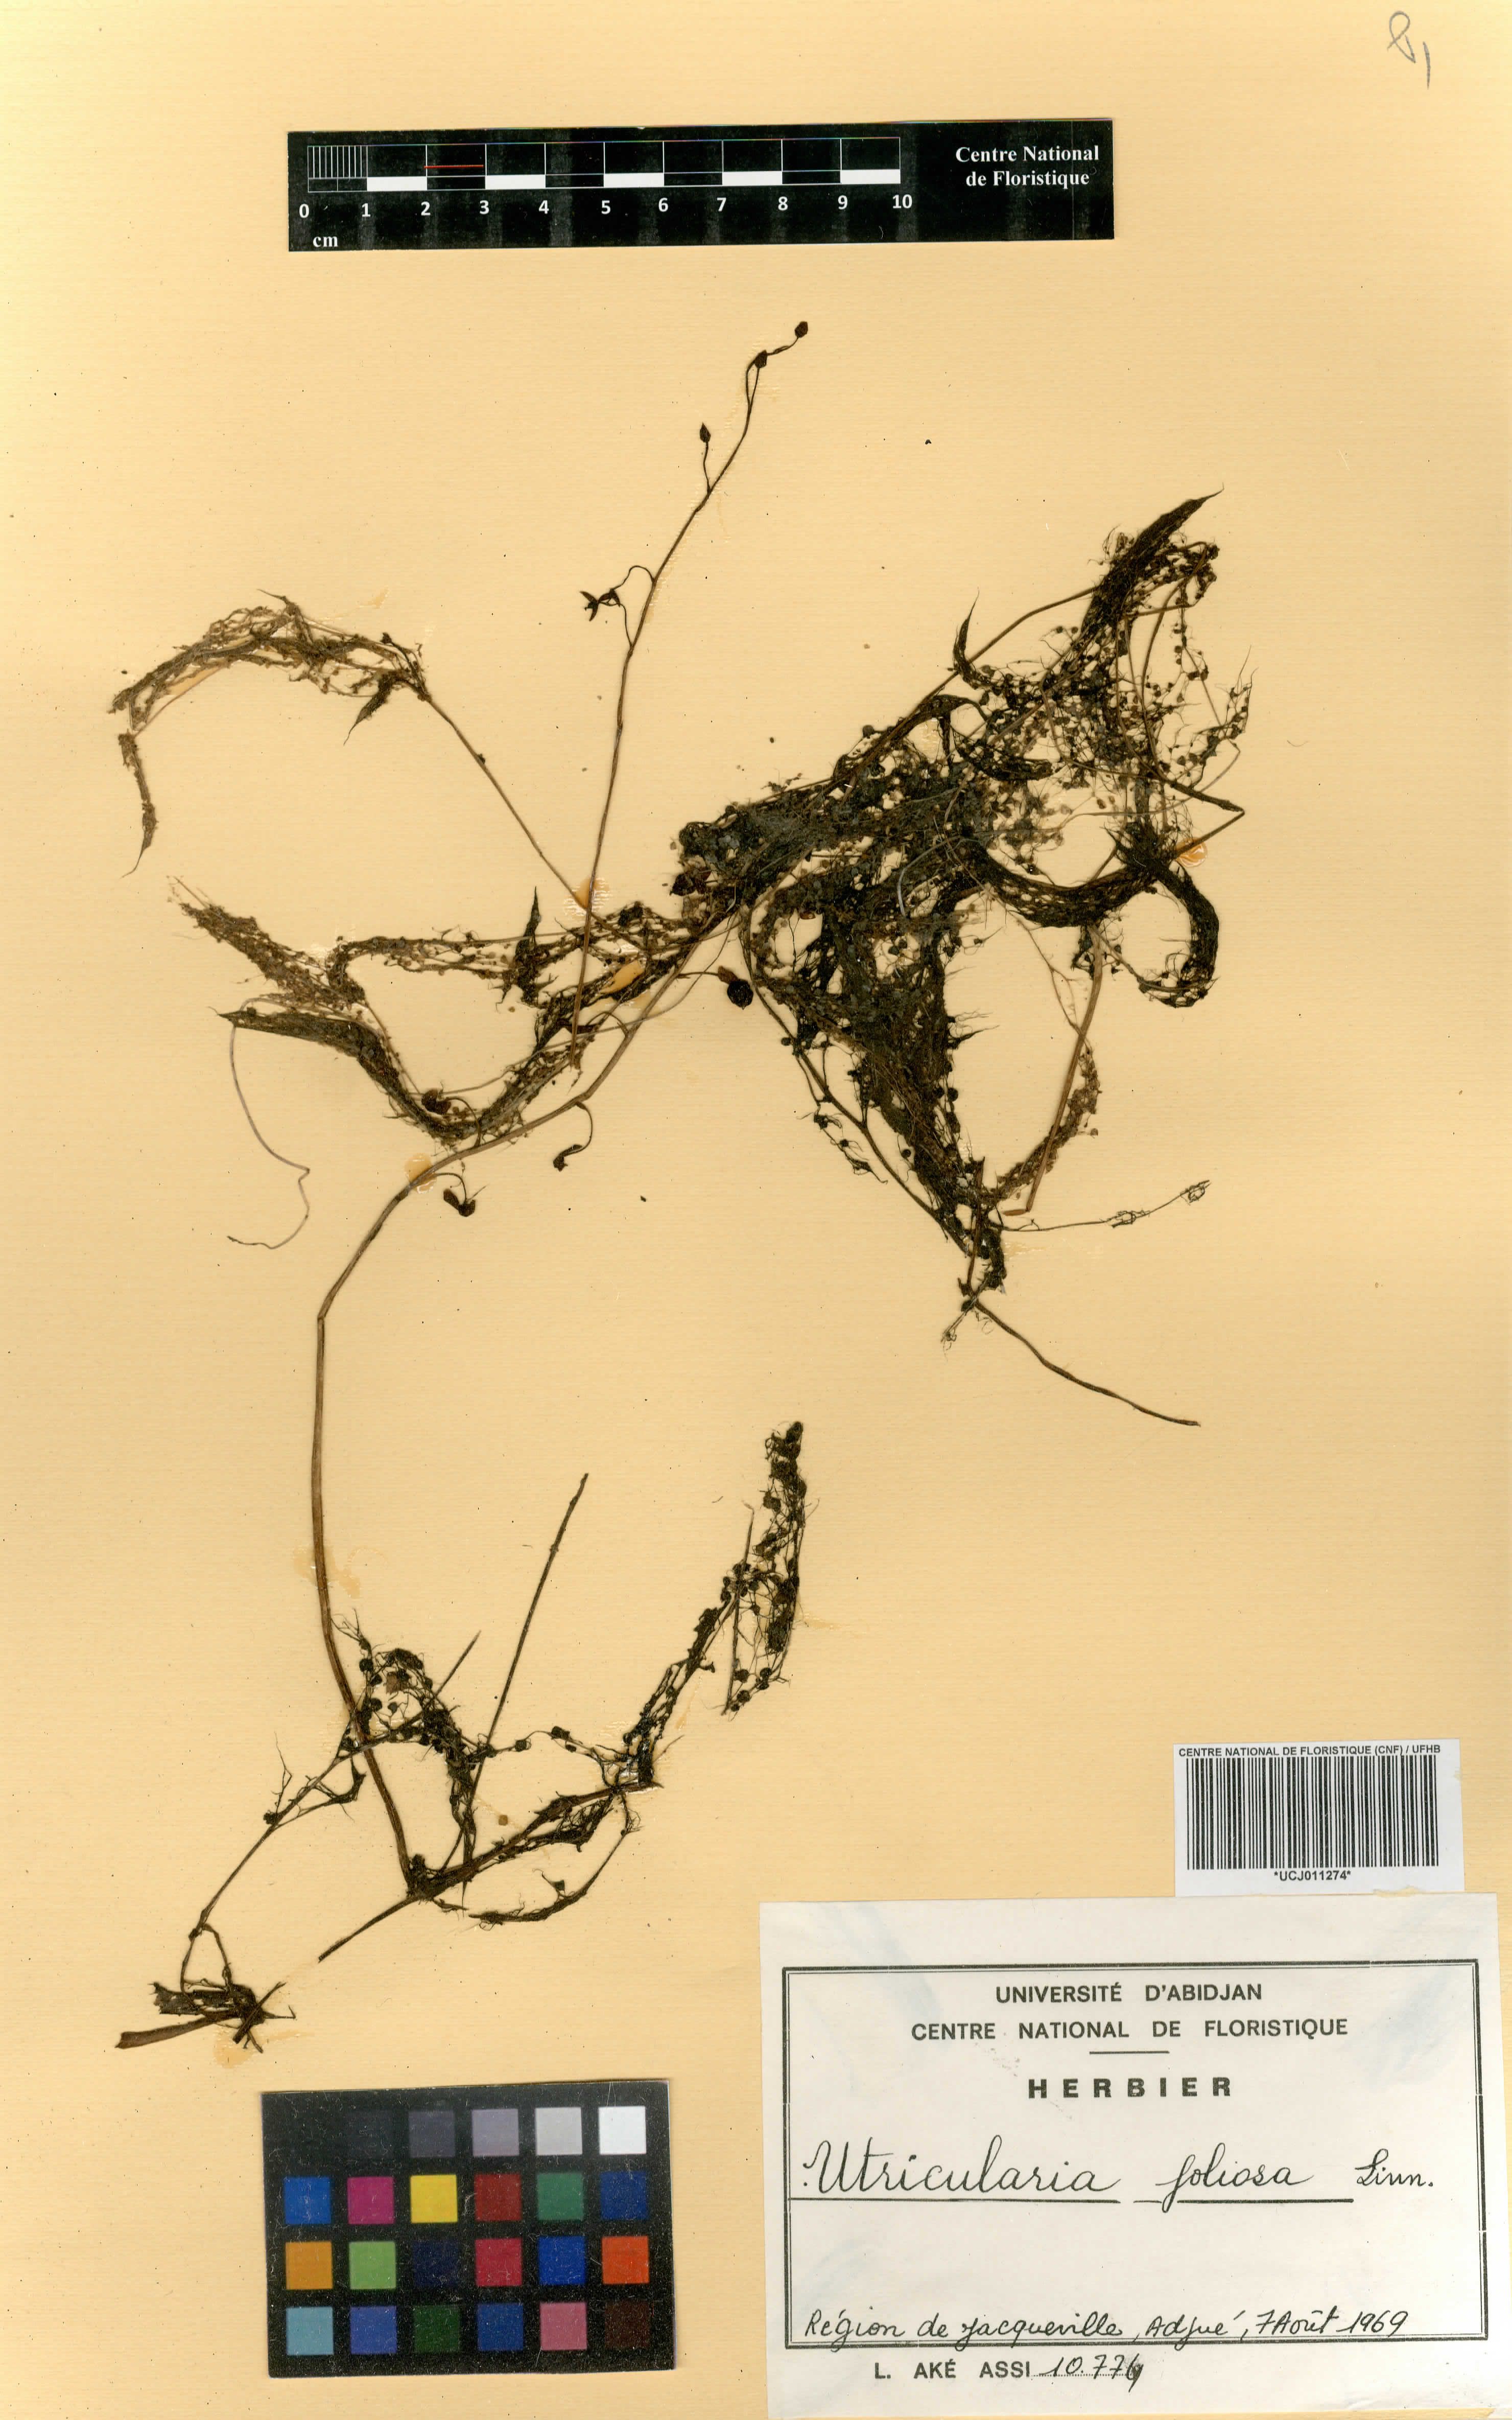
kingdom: Plantae
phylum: Tracheophyta
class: Magnoliopsida
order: Lamiales
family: Lentibulariaceae
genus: Utricularia
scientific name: Utricularia foliosa
